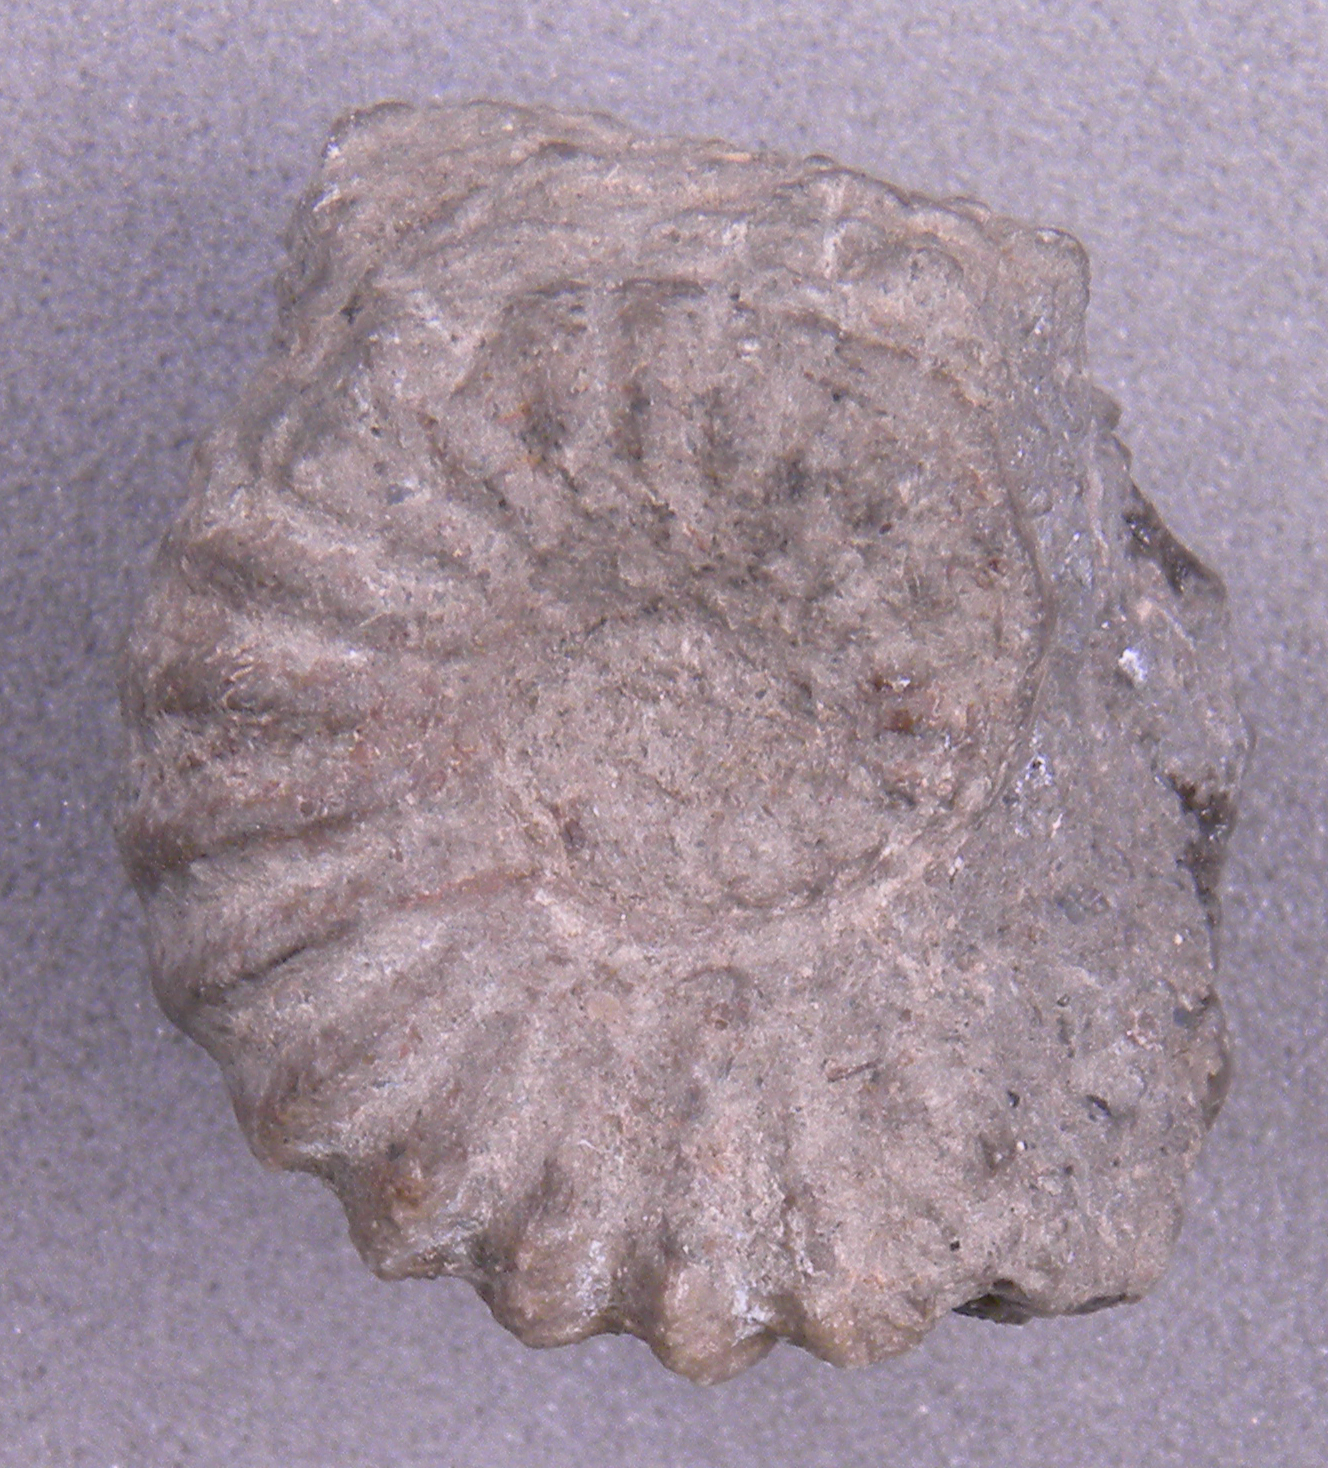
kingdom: Animalia
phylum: Mollusca
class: Cephalopoda
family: Lytoceratidae
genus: Lytoceras
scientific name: Lytoceras annulosum
